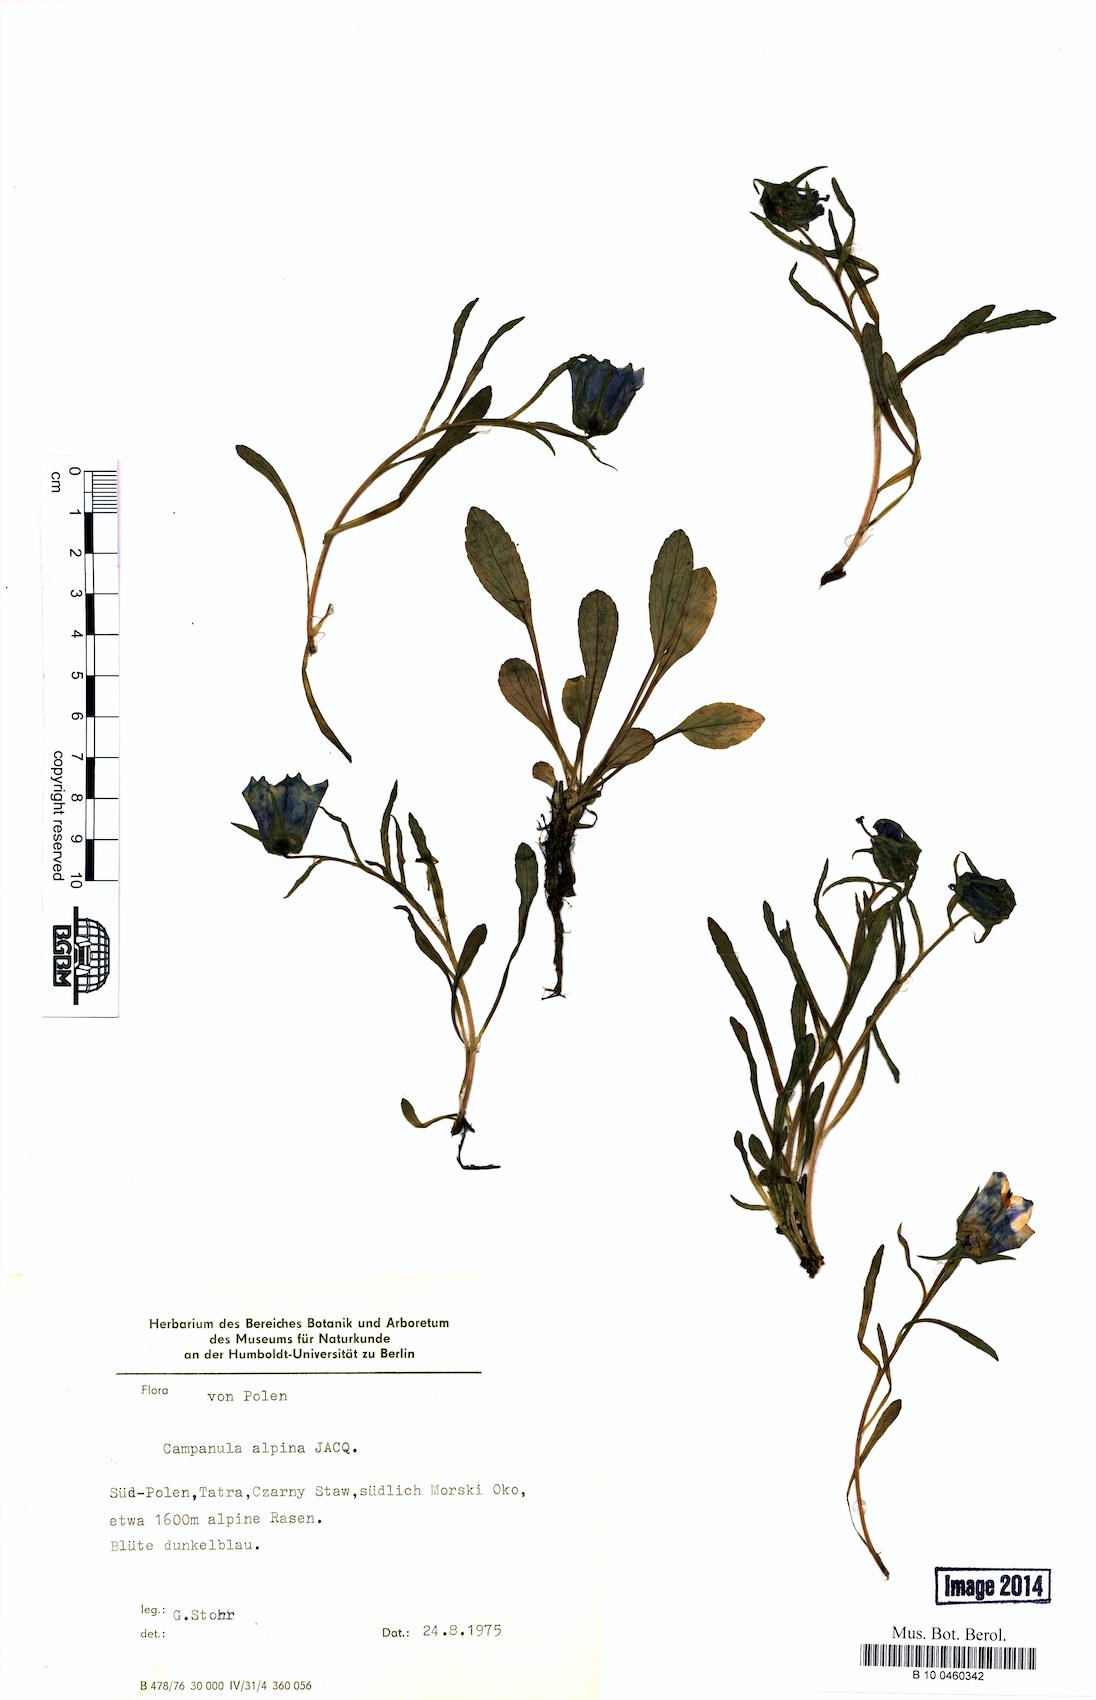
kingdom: Plantae
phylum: Tracheophyta
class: Magnoliopsida
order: Asterales
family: Campanulaceae
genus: Campanula
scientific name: Campanula alpina
